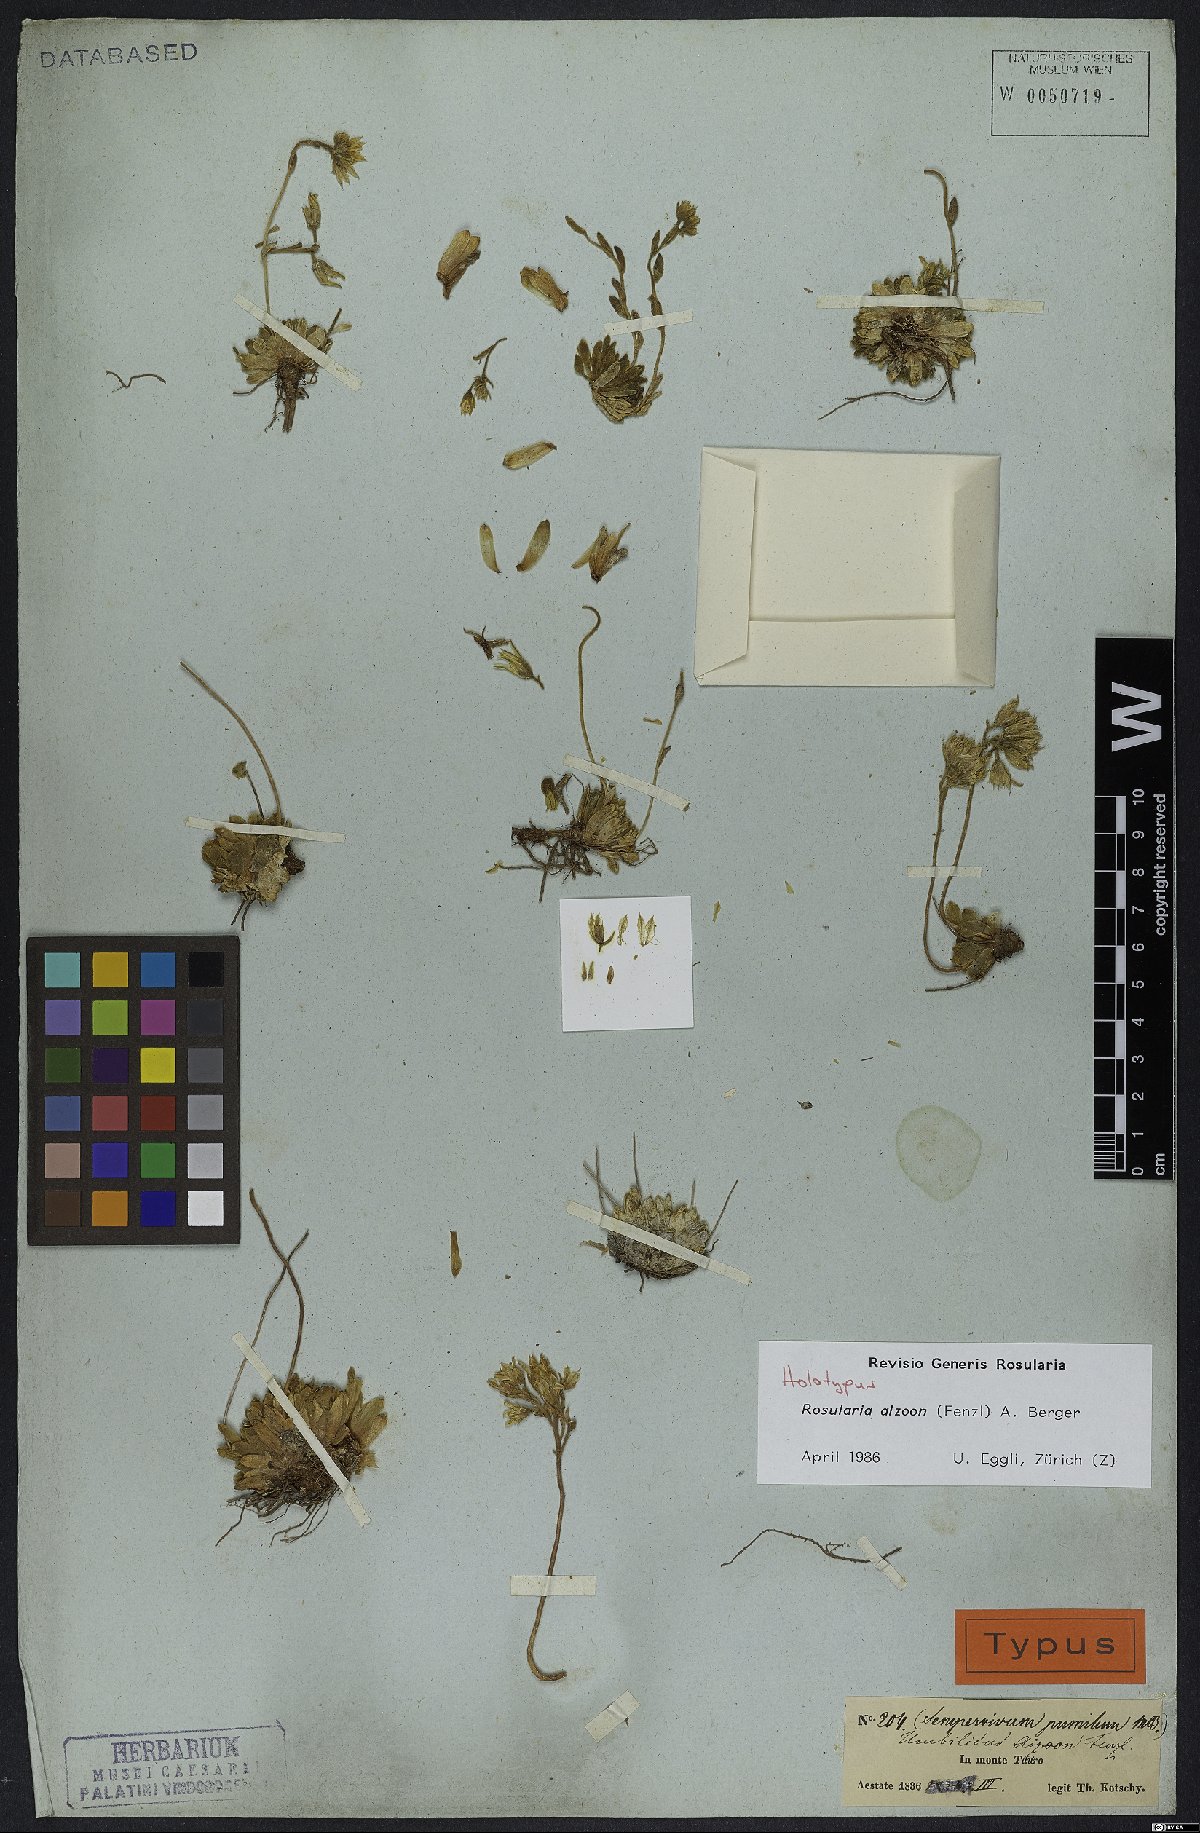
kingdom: Plantae
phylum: Tracheophyta
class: Magnoliopsida
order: Saxifragales
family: Crassulaceae
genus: Prometheum
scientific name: Prometheum aizoon
